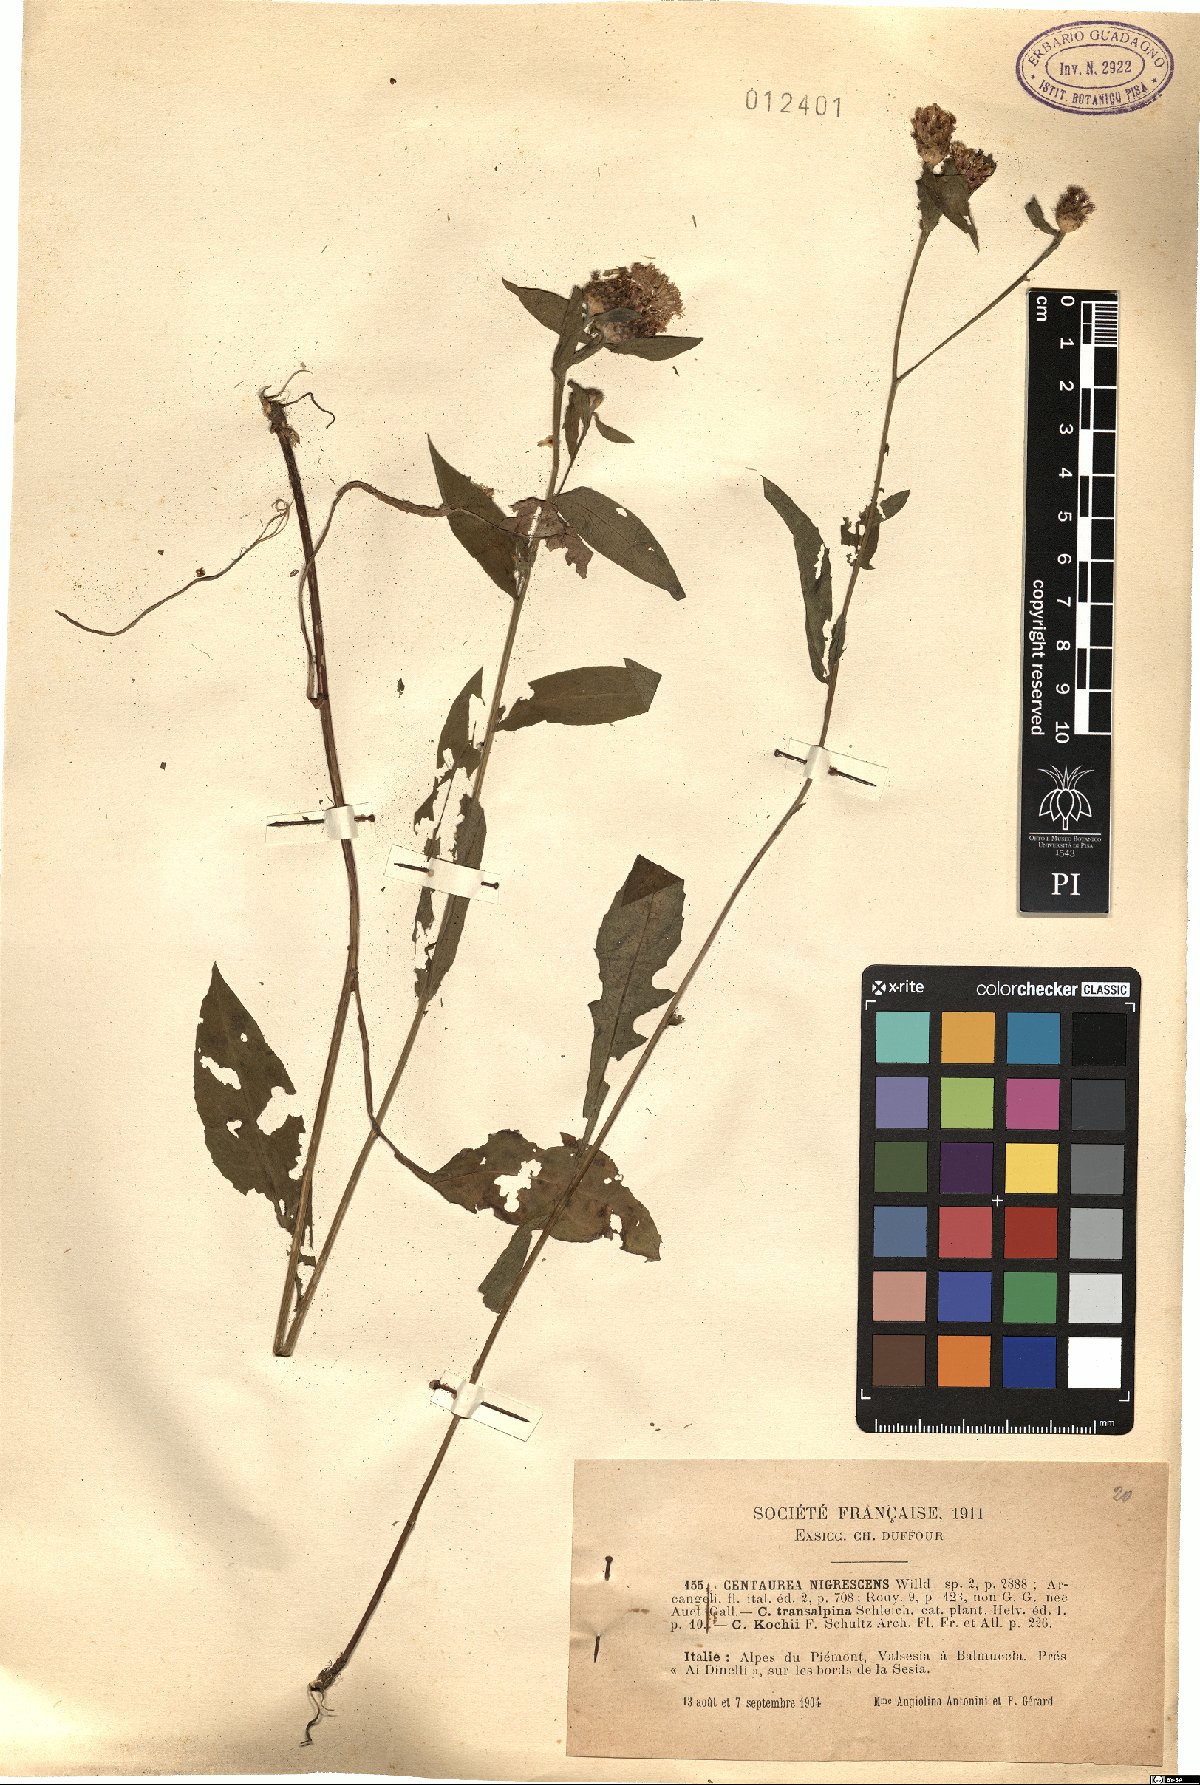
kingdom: Plantae
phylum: Tracheophyta
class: Magnoliopsida
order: Asterales
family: Asteraceae
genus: Centaurea
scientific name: Centaurea nigrescens
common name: Tyrol knapweed
